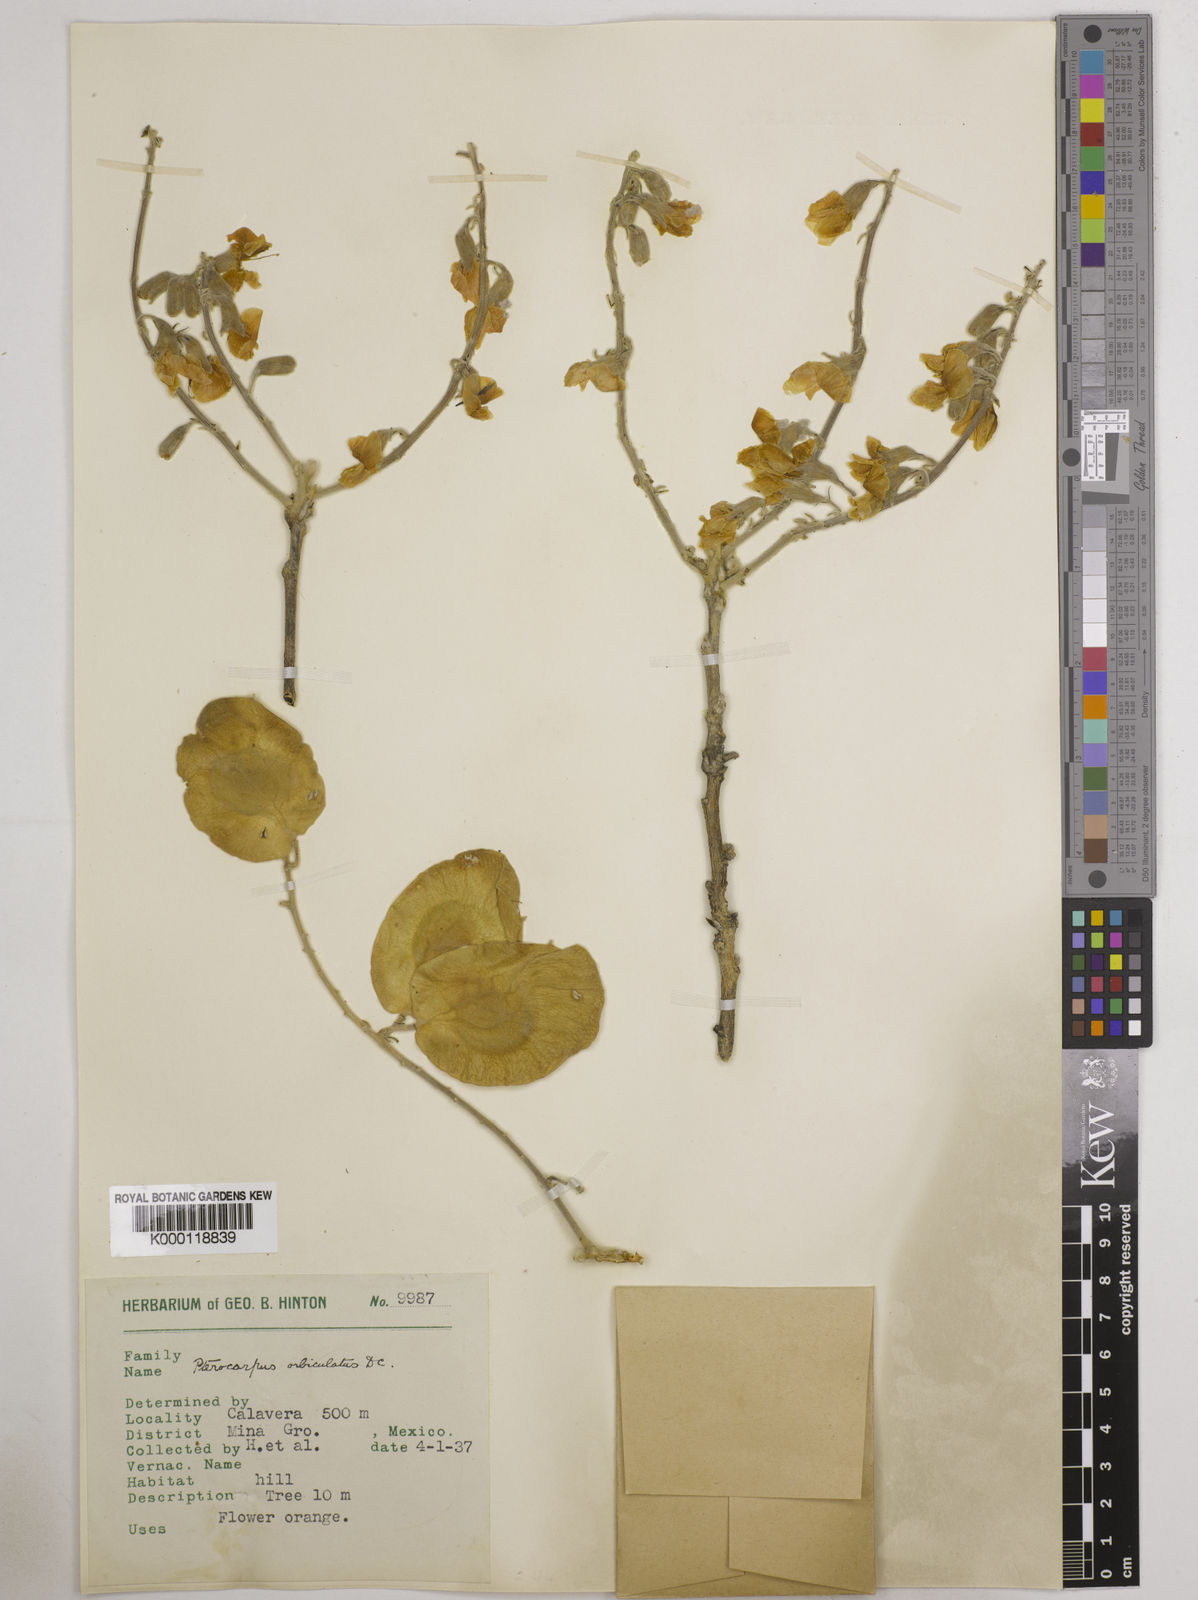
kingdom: Plantae
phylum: Tracheophyta
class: Magnoliopsida
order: Fabales
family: Fabaceae
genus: Pterocarpus
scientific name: Pterocarpus orbiculatus
